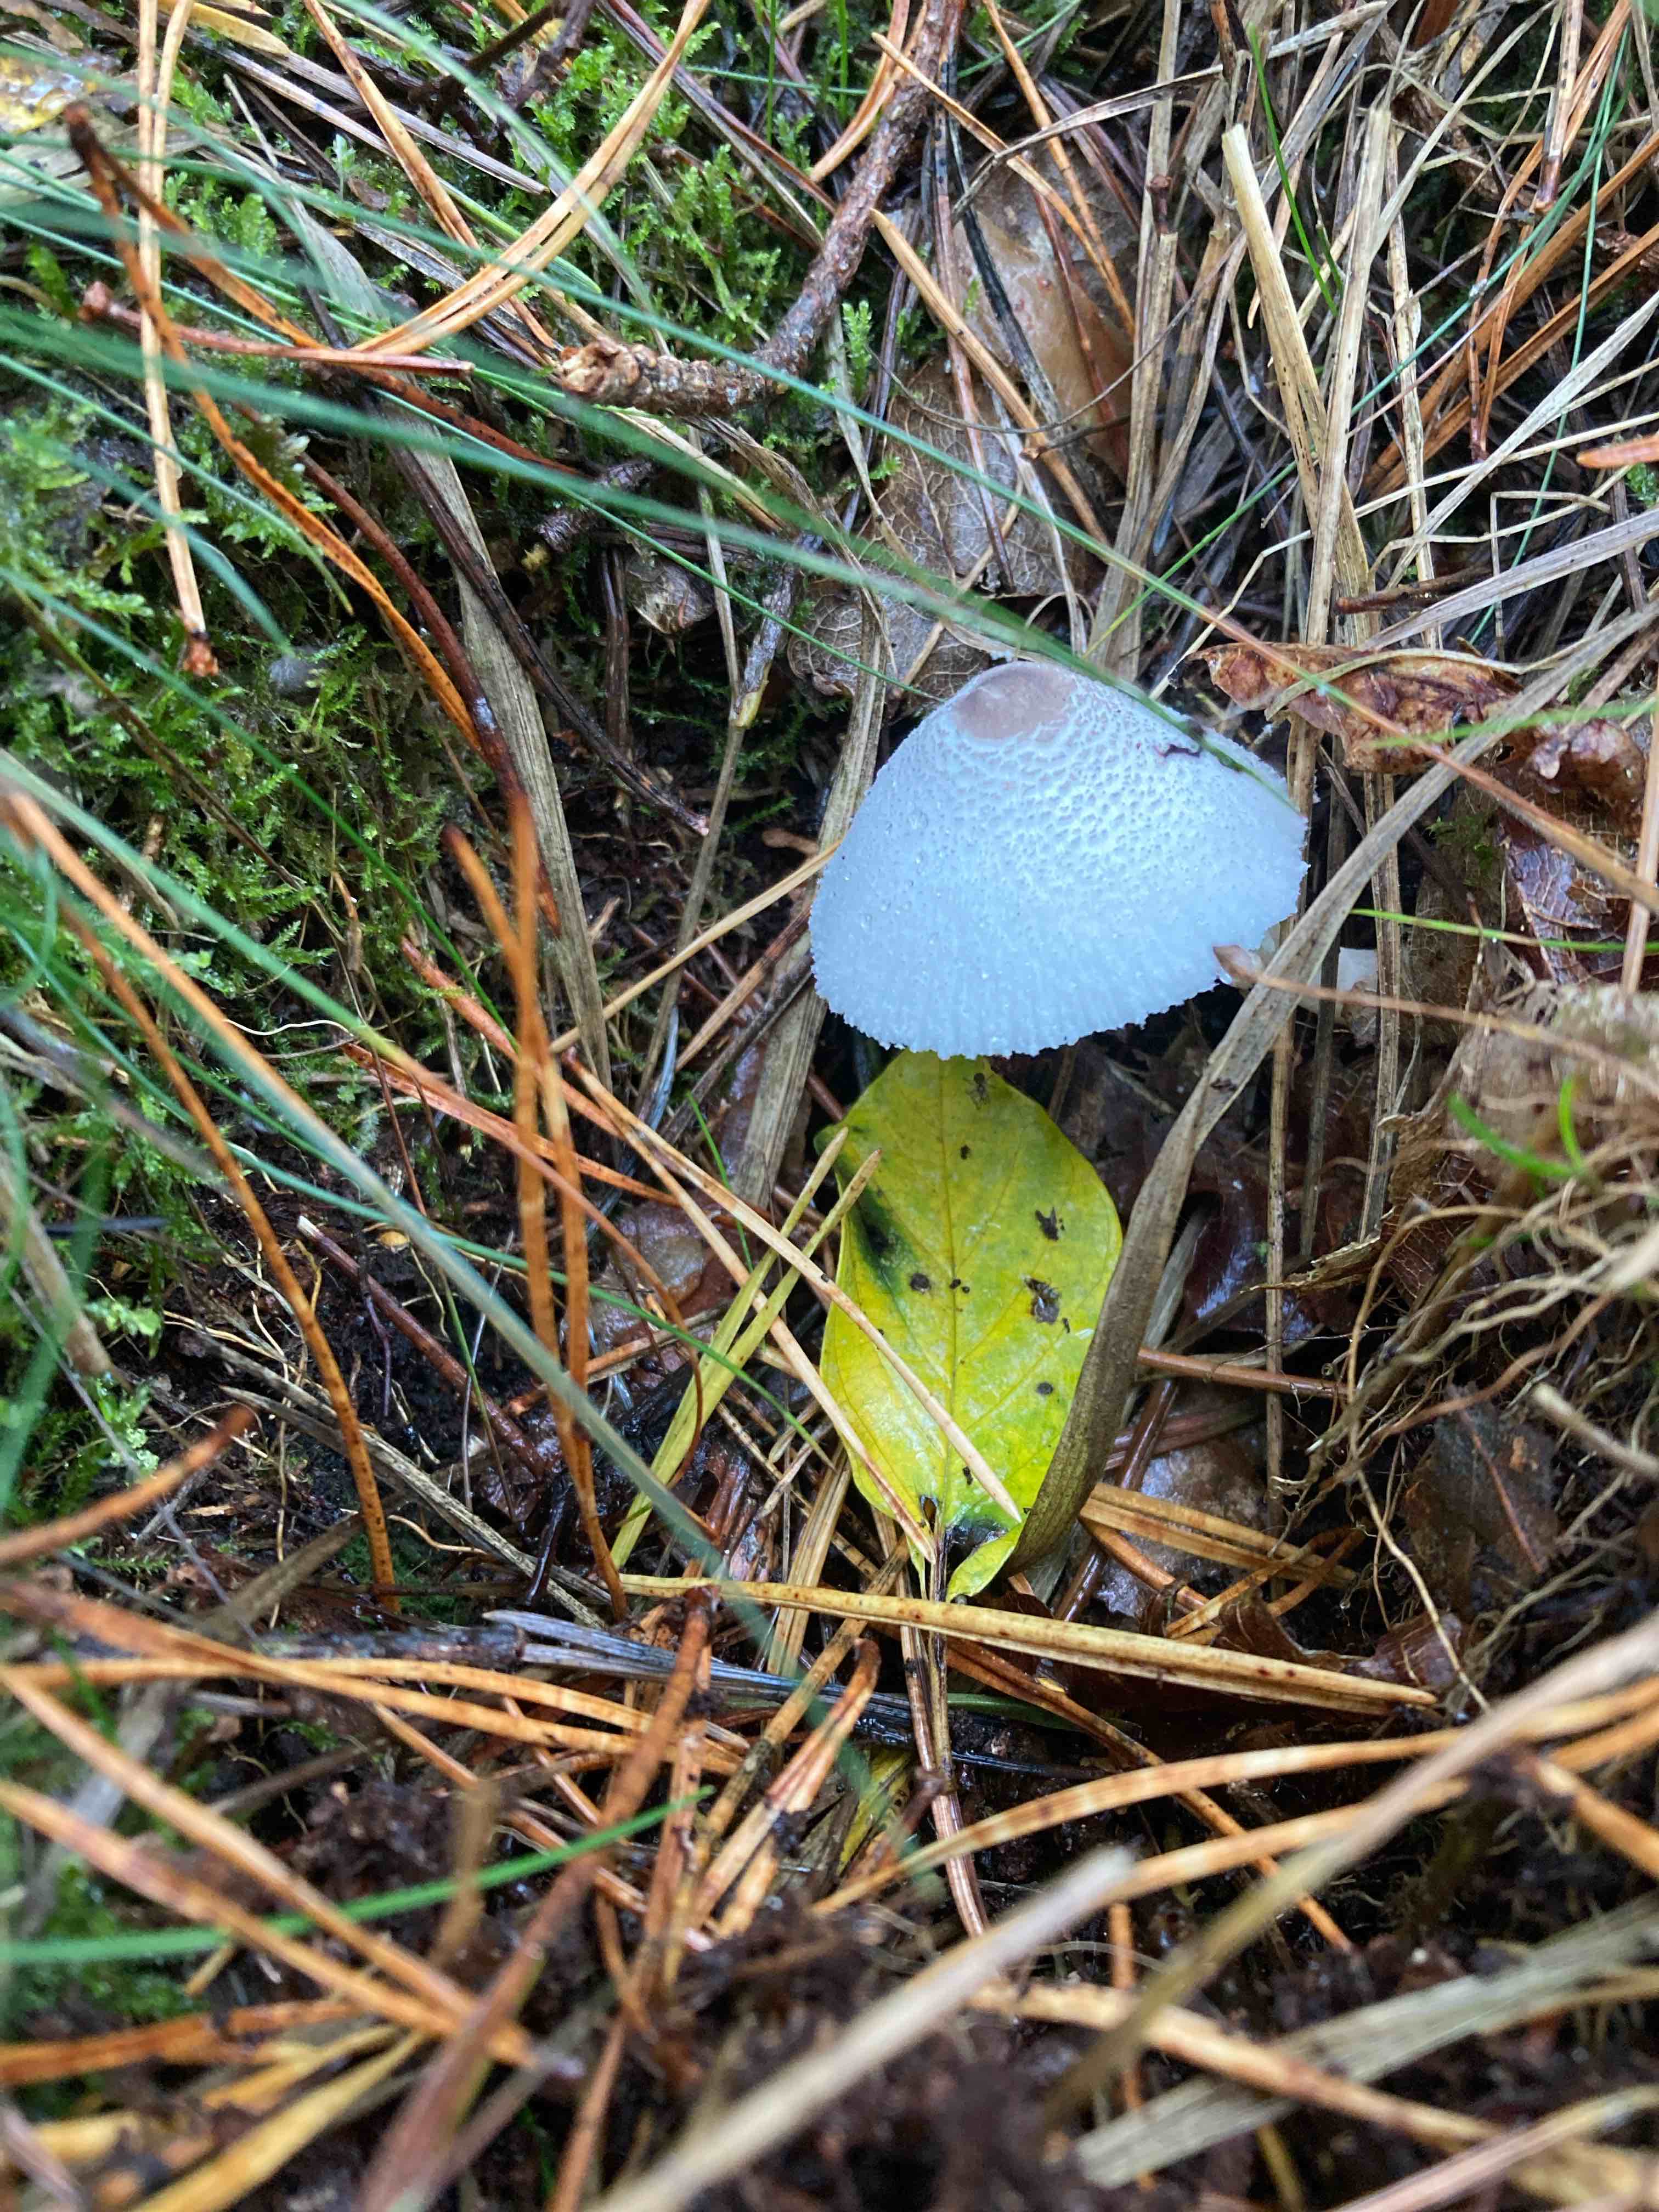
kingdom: Fungi
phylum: Basidiomycota
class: Agaricomycetes
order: Agaricales
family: Agaricaceae
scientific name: Agaricaceae
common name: champignonfamilien
